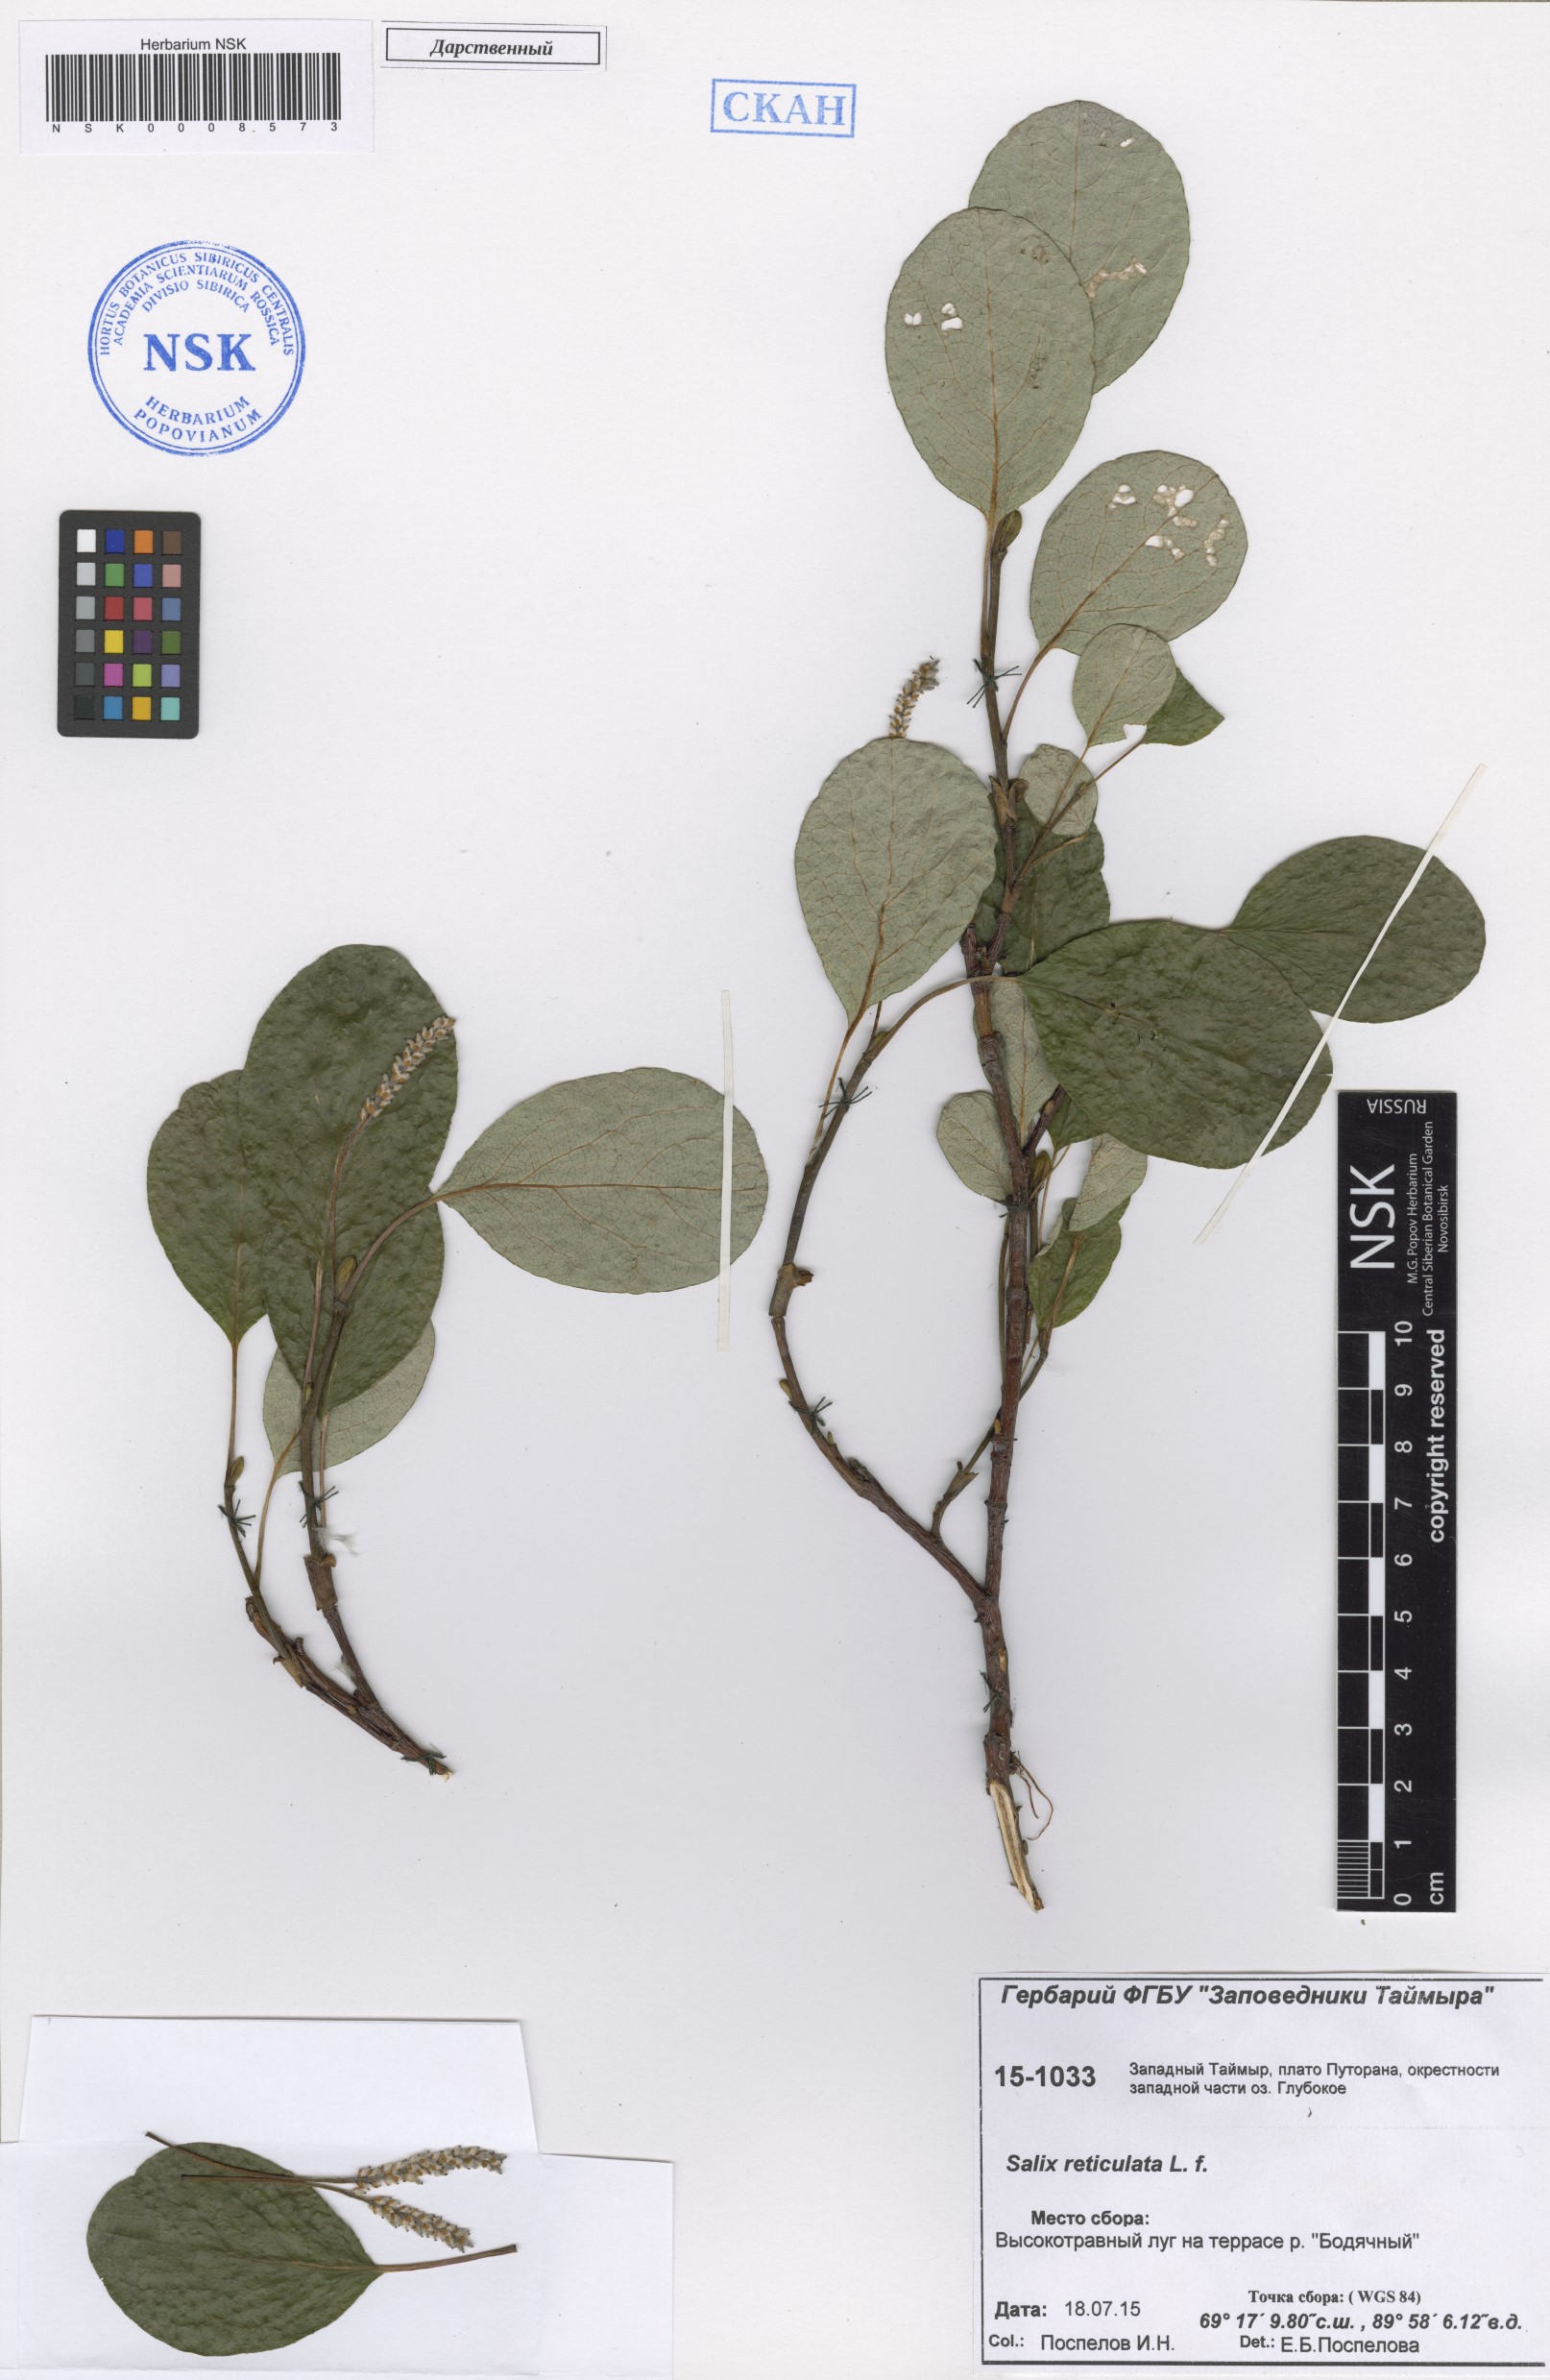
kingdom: Plantae
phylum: Tracheophyta
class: Magnoliopsida
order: Malpighiales
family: Salicaceae
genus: Salix
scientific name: Salix reticulata
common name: Net-leaved willow
